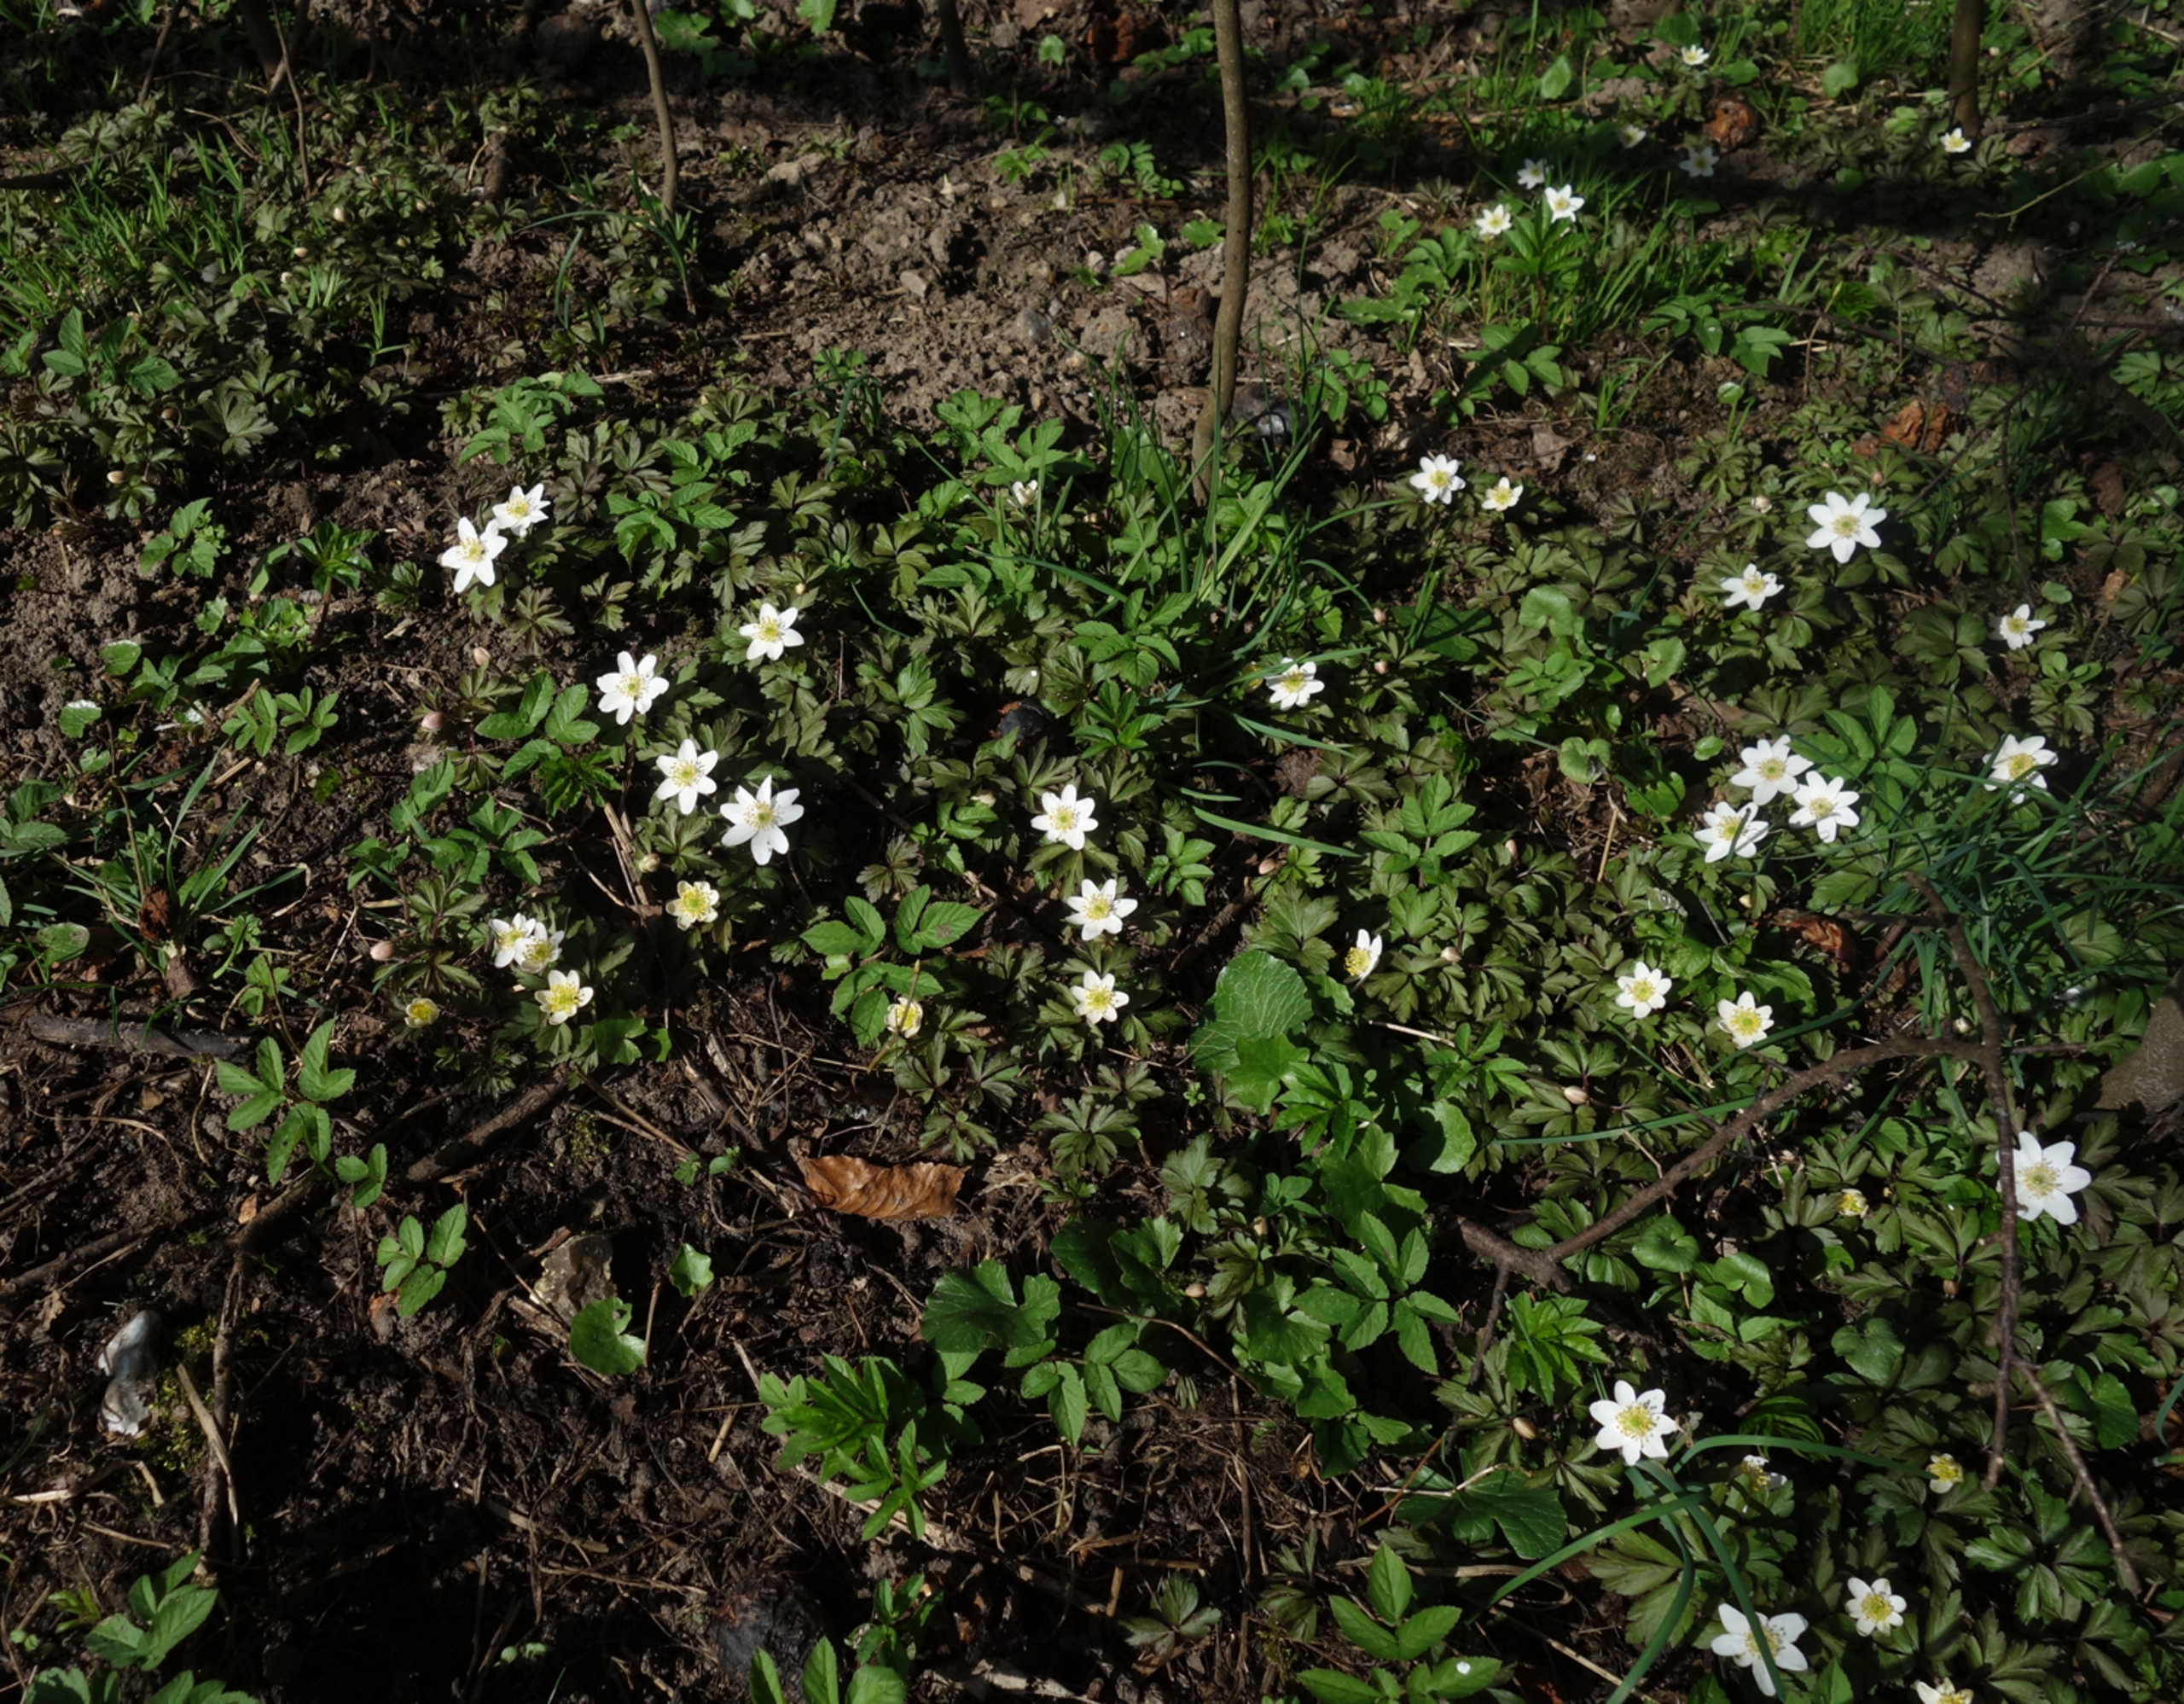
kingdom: Plantae
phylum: Tracheophyta
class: Magnoliopsida
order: Ranunculales
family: Ranunculaceae
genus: Anemone
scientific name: Anemone nemorosa
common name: Hvid anemone
